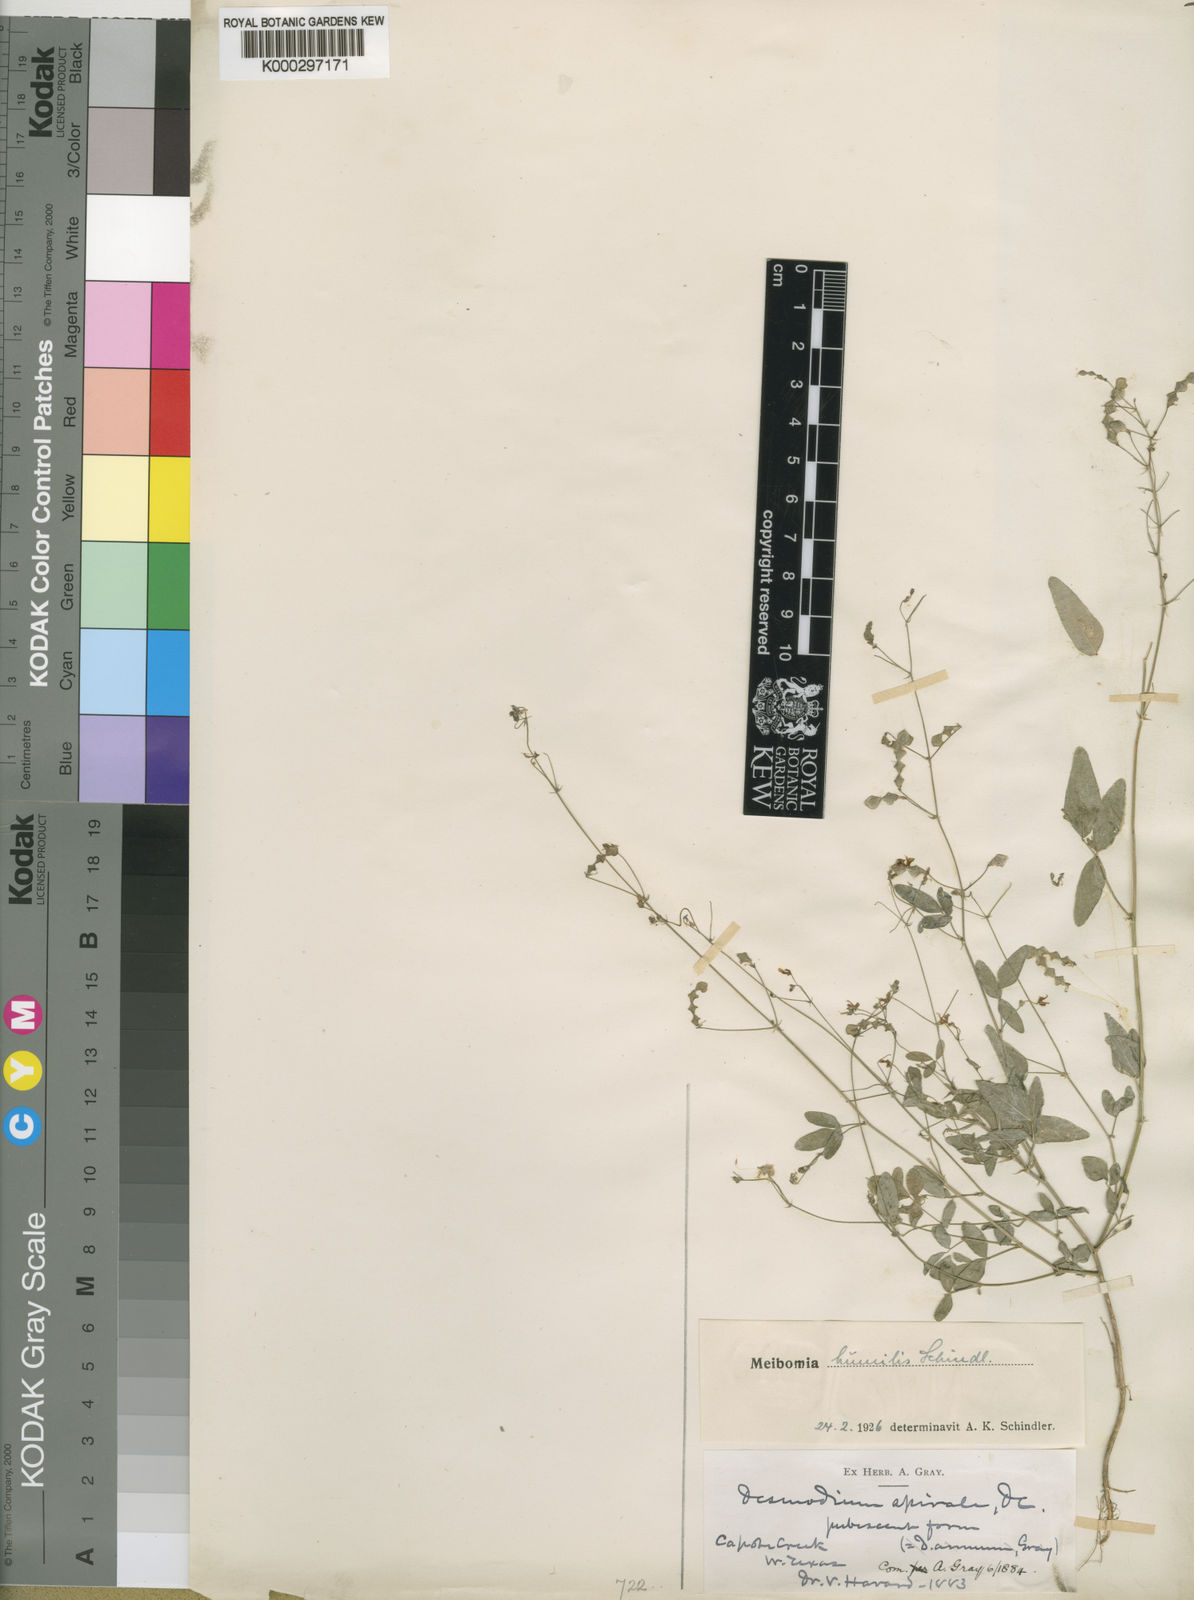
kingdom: Plantae
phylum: Tracheophyta
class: Magnoliopsida
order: Fabales
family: Fabaceae
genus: Desmodium
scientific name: Desmodium procumbens
